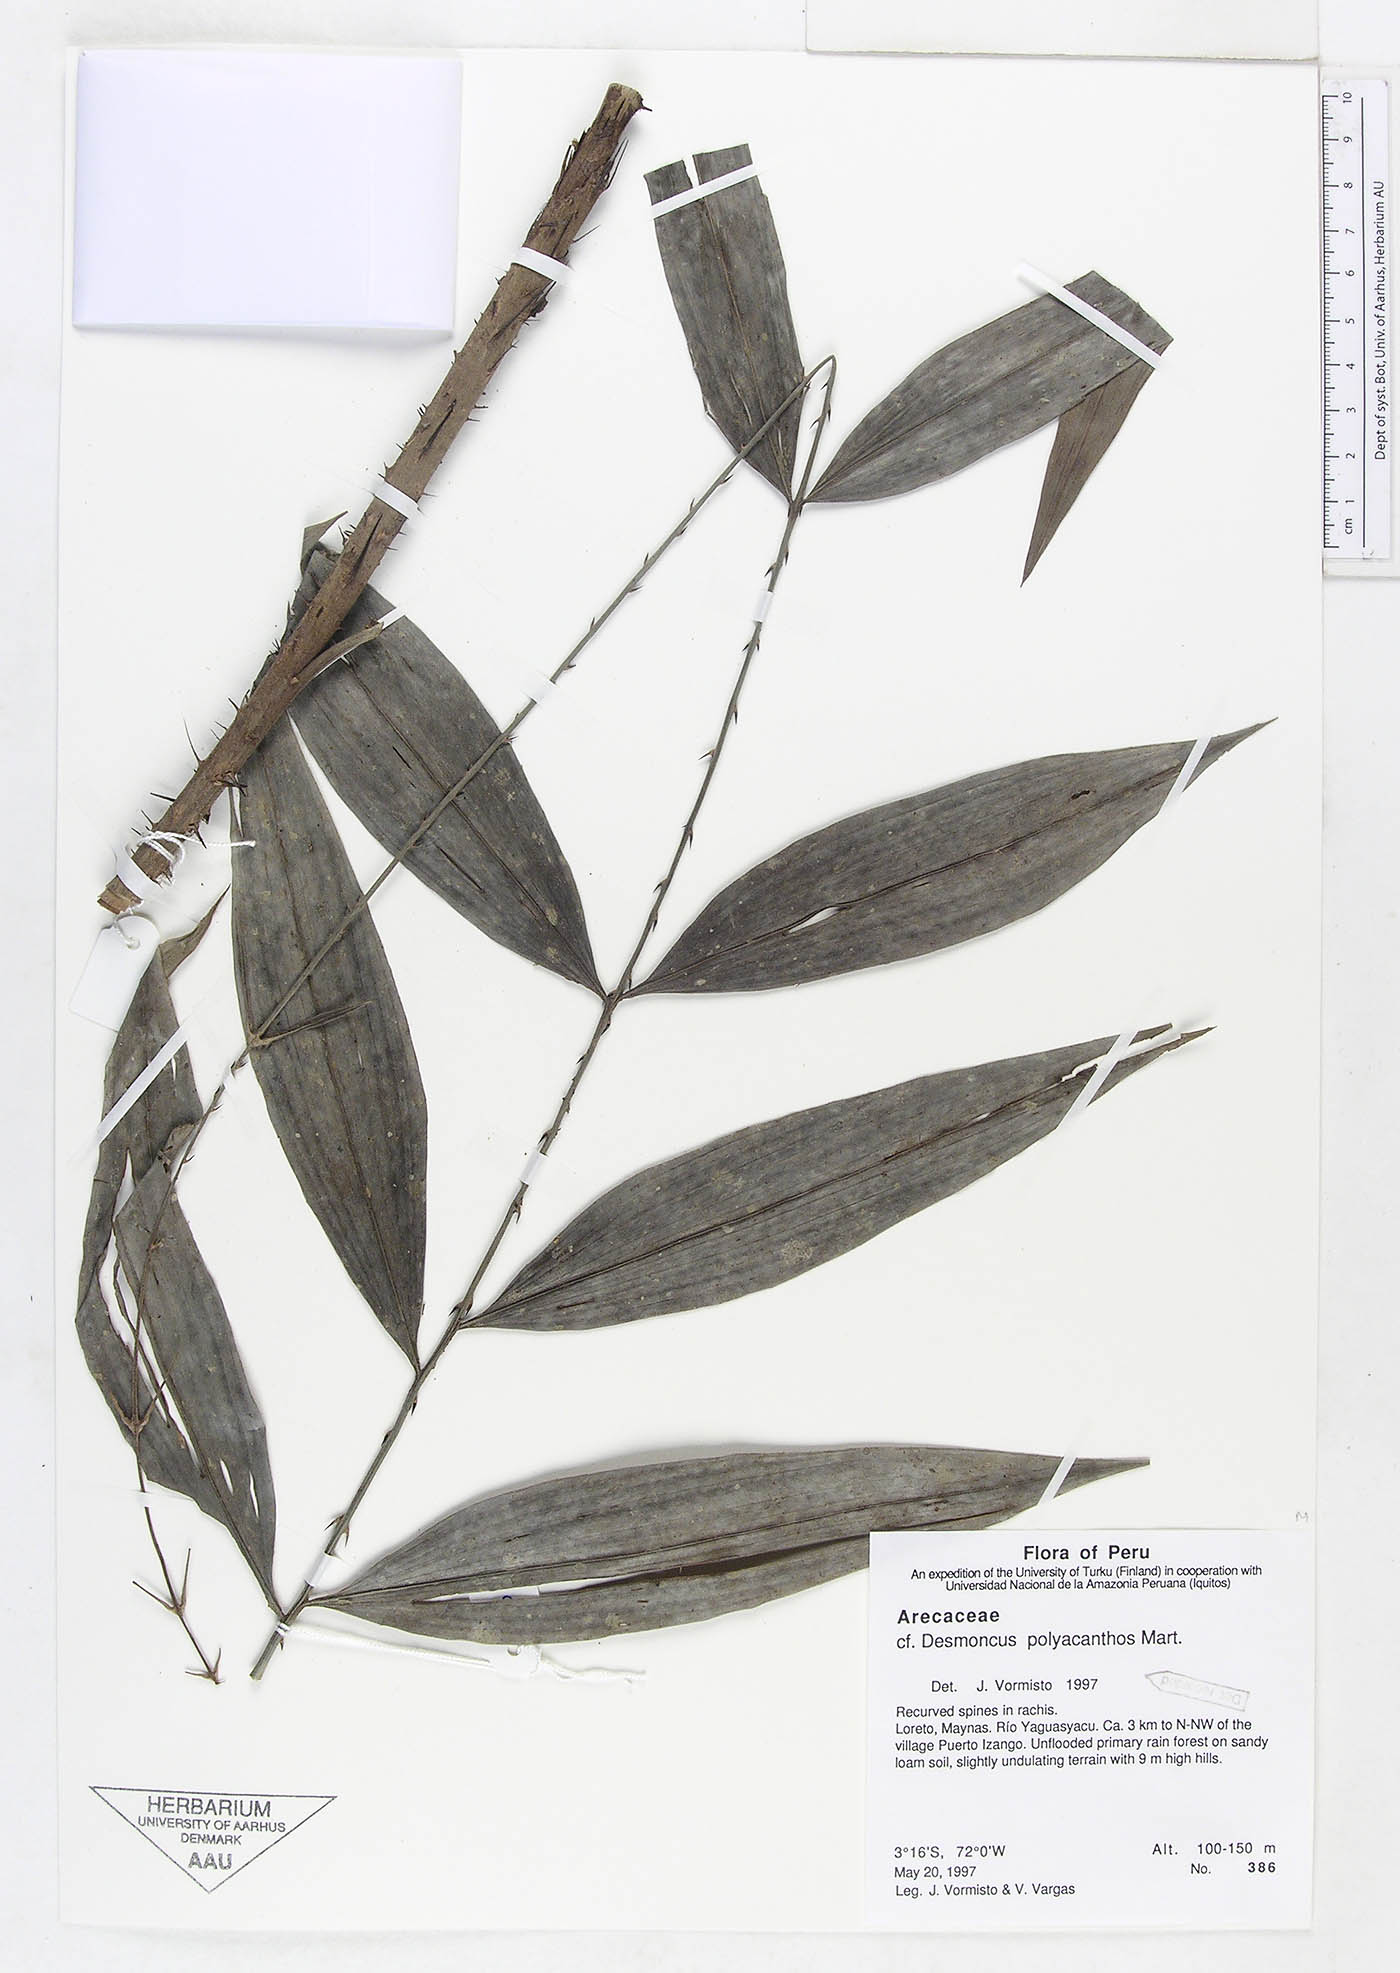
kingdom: Plantae
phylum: Tracheophyta
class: Liliopsida
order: Arecales
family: Arecaceae
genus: Desmoncus
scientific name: Desmoncus polyacanthos
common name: Suriname bramble palm
